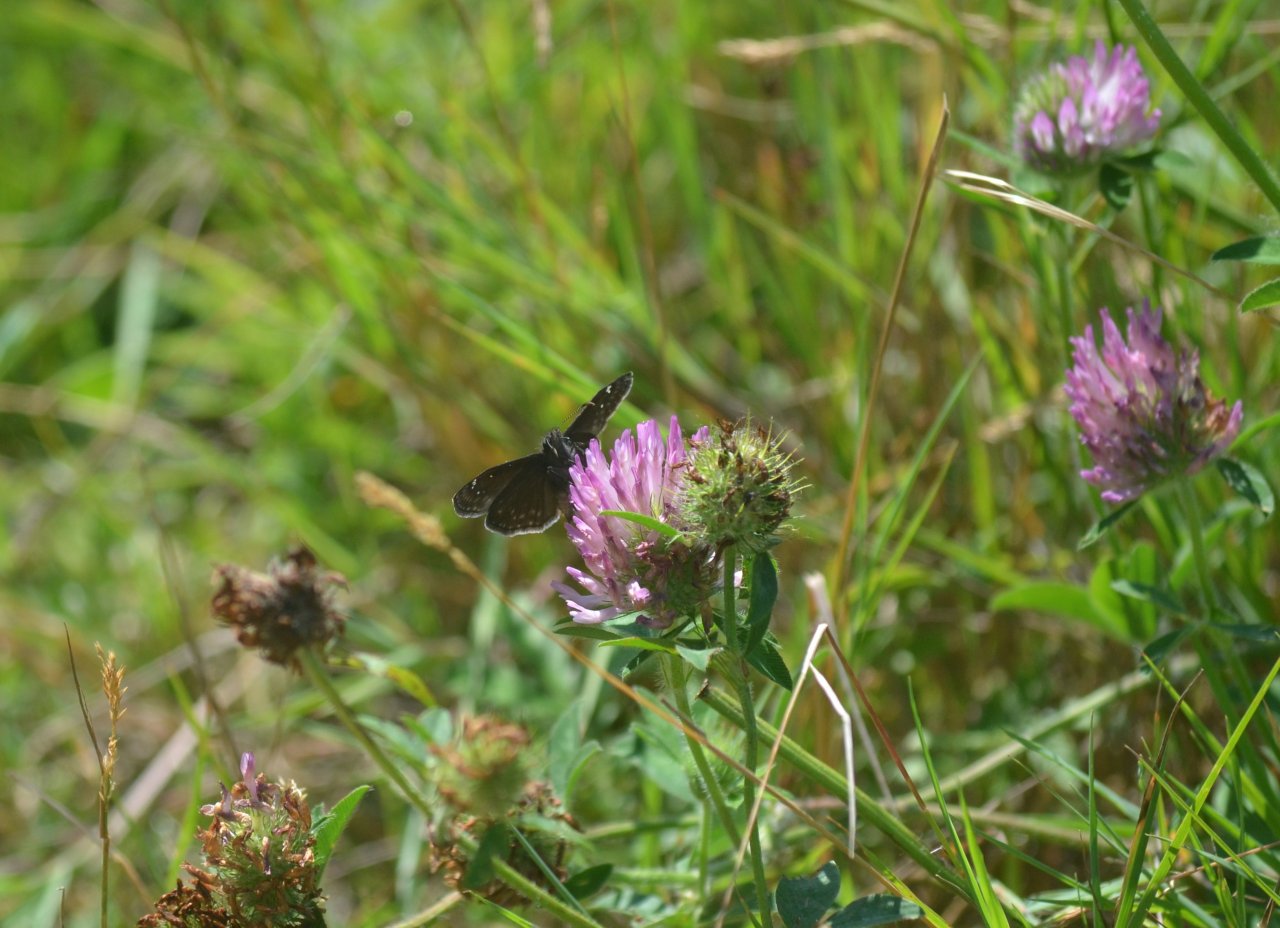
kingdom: Animalia
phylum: Arthropoda
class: Insecta
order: Lepidoptera
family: Hesperiidae
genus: Gesta
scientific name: Gesta
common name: Wild Indigo Duskywing
